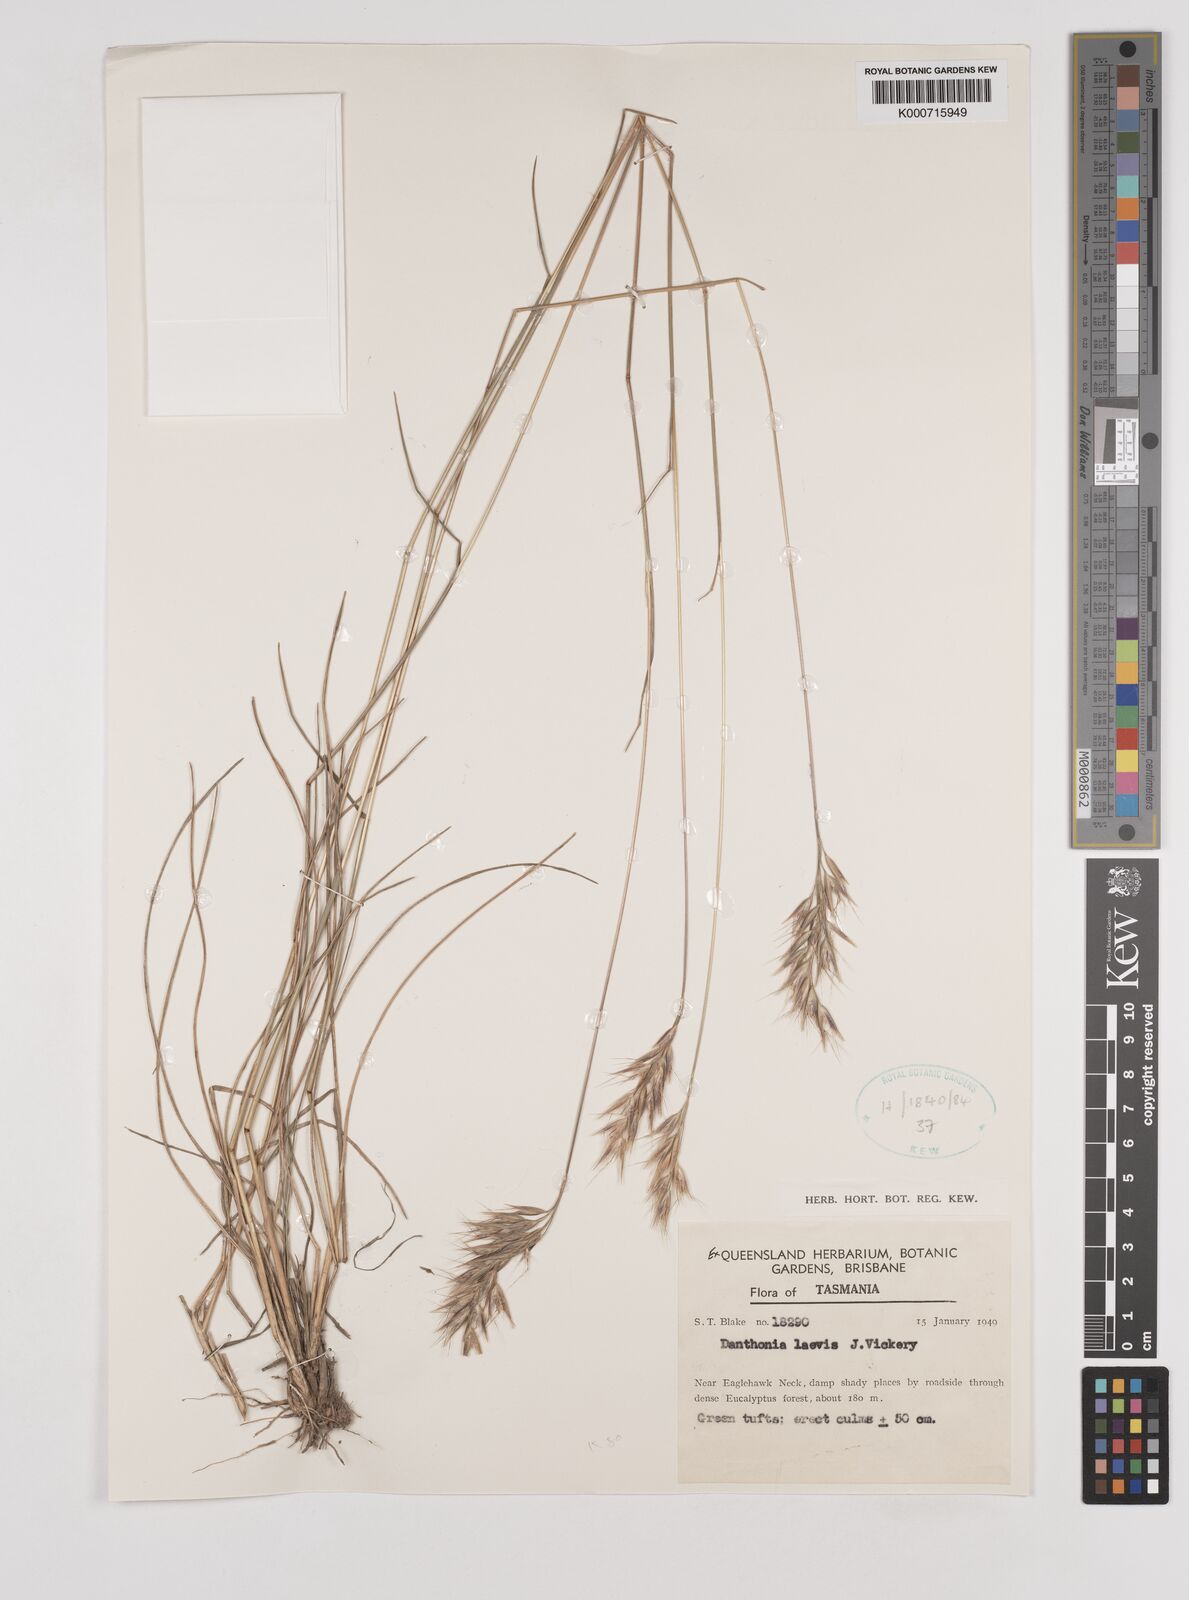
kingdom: Plantae
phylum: Tracheophyta
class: Liliopsida
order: Poales
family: Poaceae
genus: Rytidosperma
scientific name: Rytidosperma laeve
